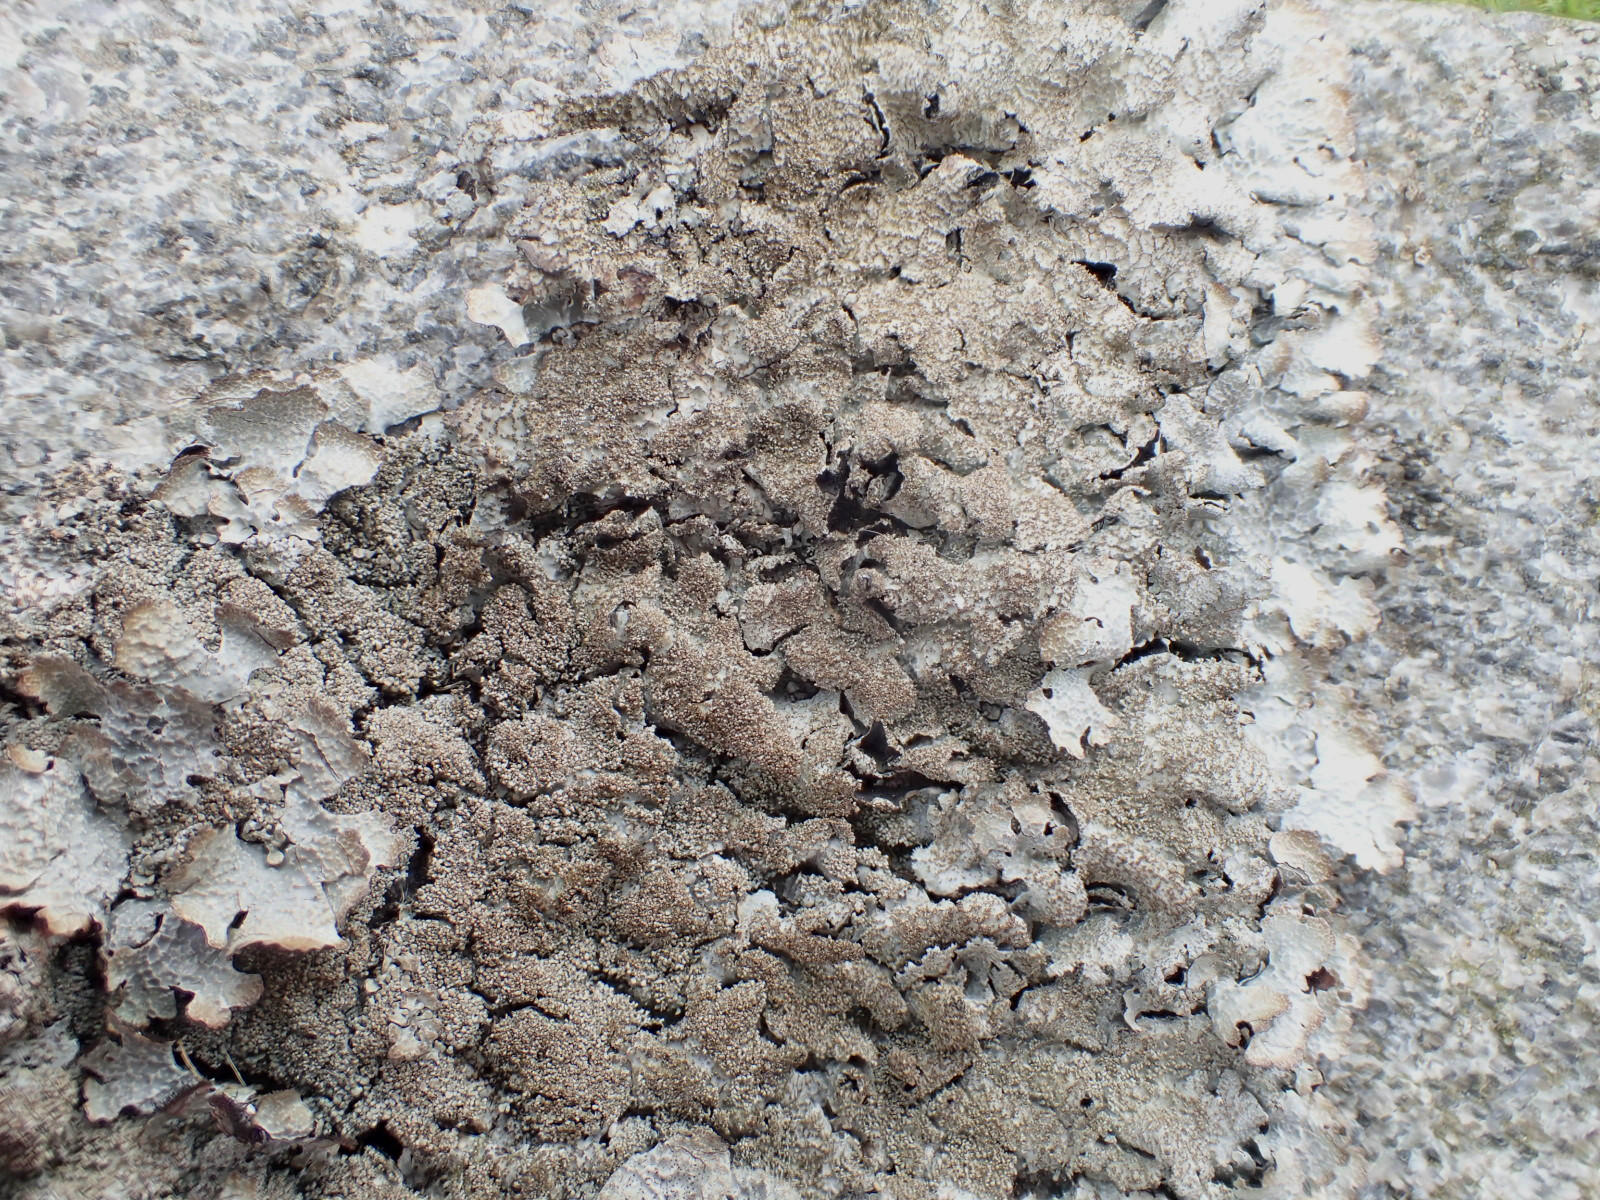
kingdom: Fungi
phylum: Ascomycota
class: Lecanoromycetes
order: Lecanorales
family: Parmeliaceae
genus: Parmelia
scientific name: Parmelia saxatilis
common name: farve-skållav
